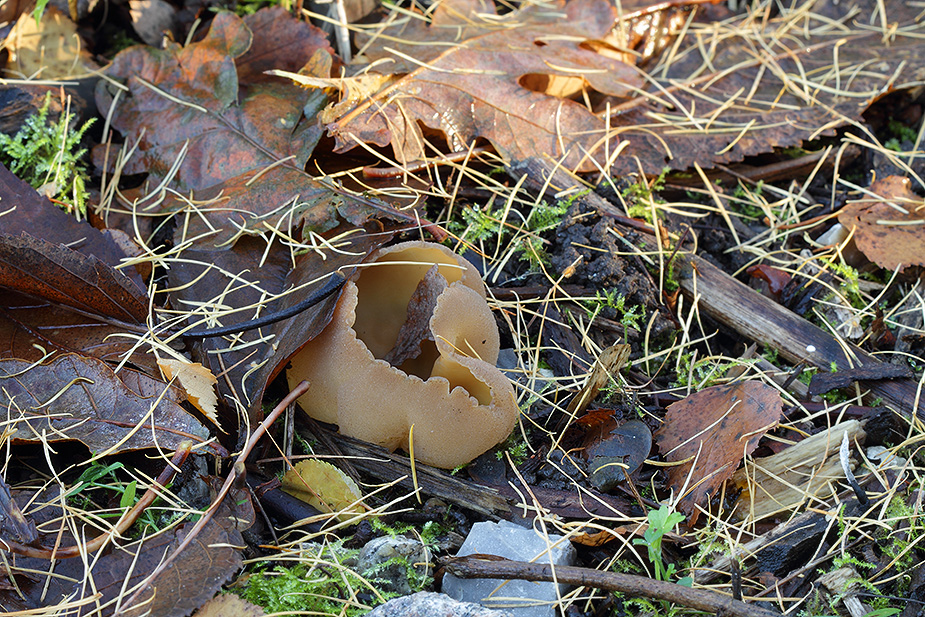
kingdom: Fungi
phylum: Ascomycota
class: Pezizomycetes
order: Pezizales
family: Pezizaceae
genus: Peziza
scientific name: Peziza
